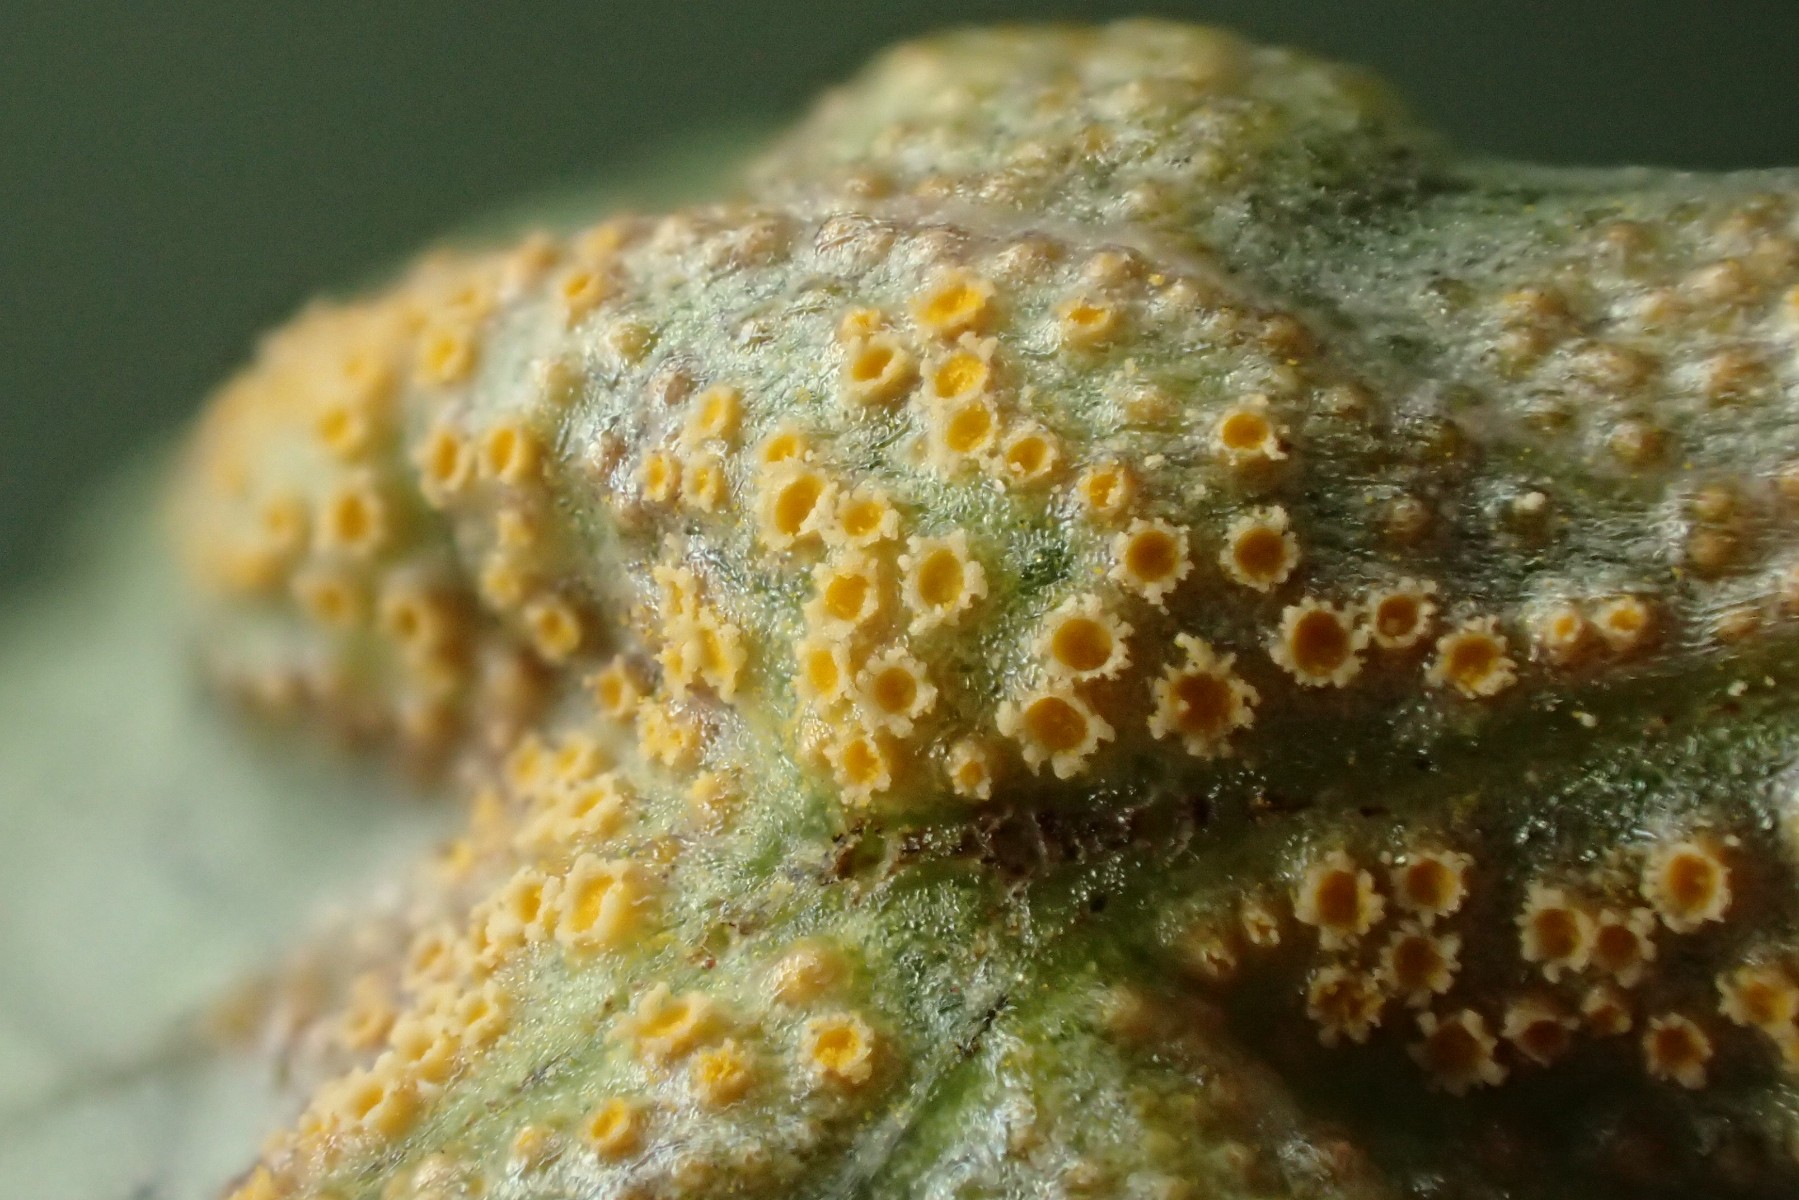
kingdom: Fungi
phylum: Basidiomycota
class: Pucciniomycetes
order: Pucciniales
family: Pucciniaceae
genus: Puccinia
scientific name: Puccinia violae
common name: viol-tvecellerust
